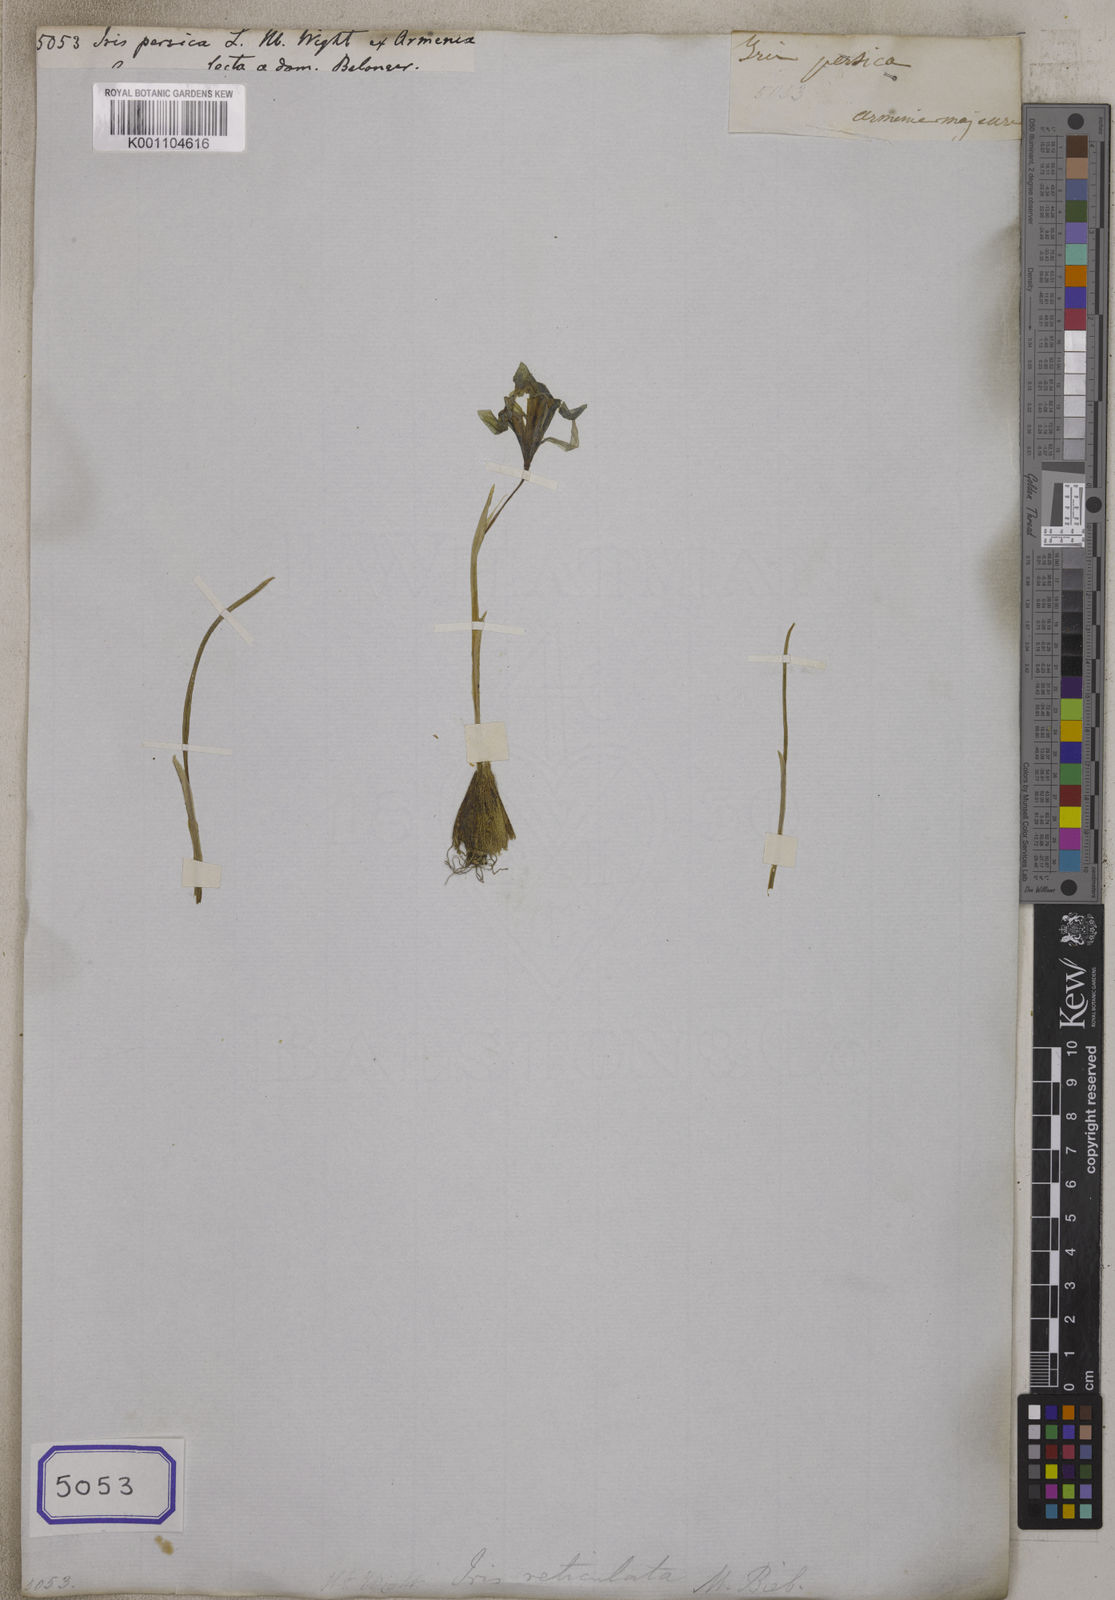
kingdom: Plantae
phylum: Tracheophyta
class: Liliopsida
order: Asparagales
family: Iridaceae
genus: Iris
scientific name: Iris persica
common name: Persian iris
